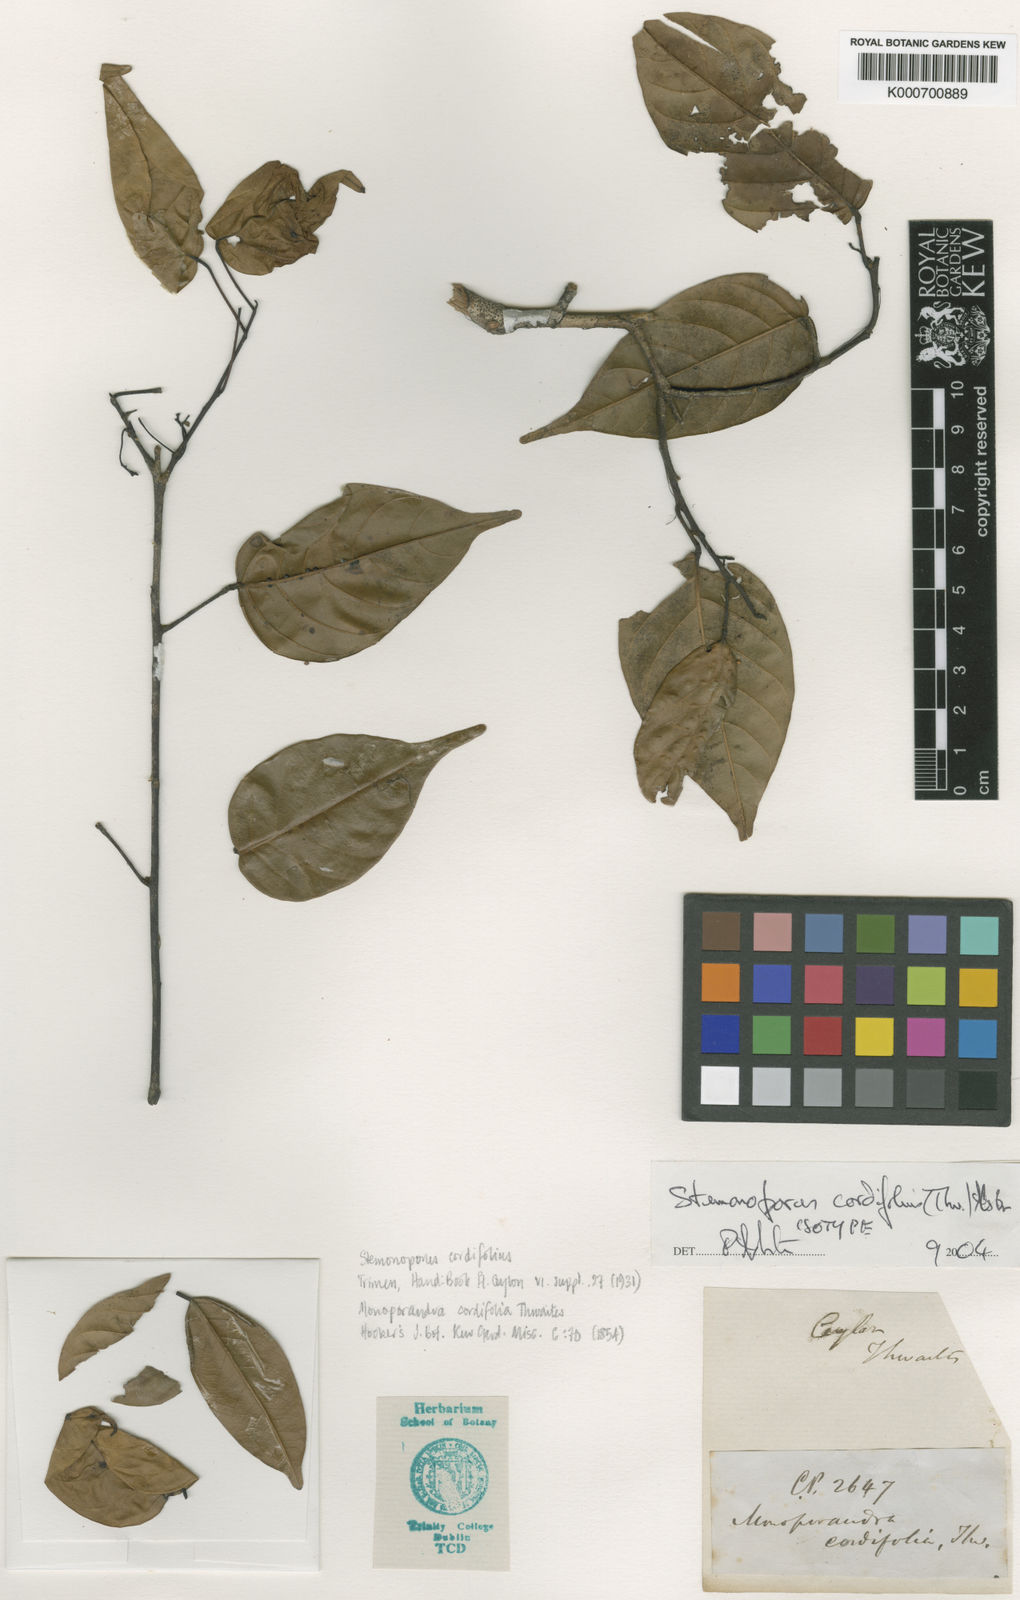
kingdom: Plantae
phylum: Tracheophyta
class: Magnoliopsida
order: Malvales
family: Dipterocarpaceae
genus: Stemonoporus
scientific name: Stemonoporus cordifolius
